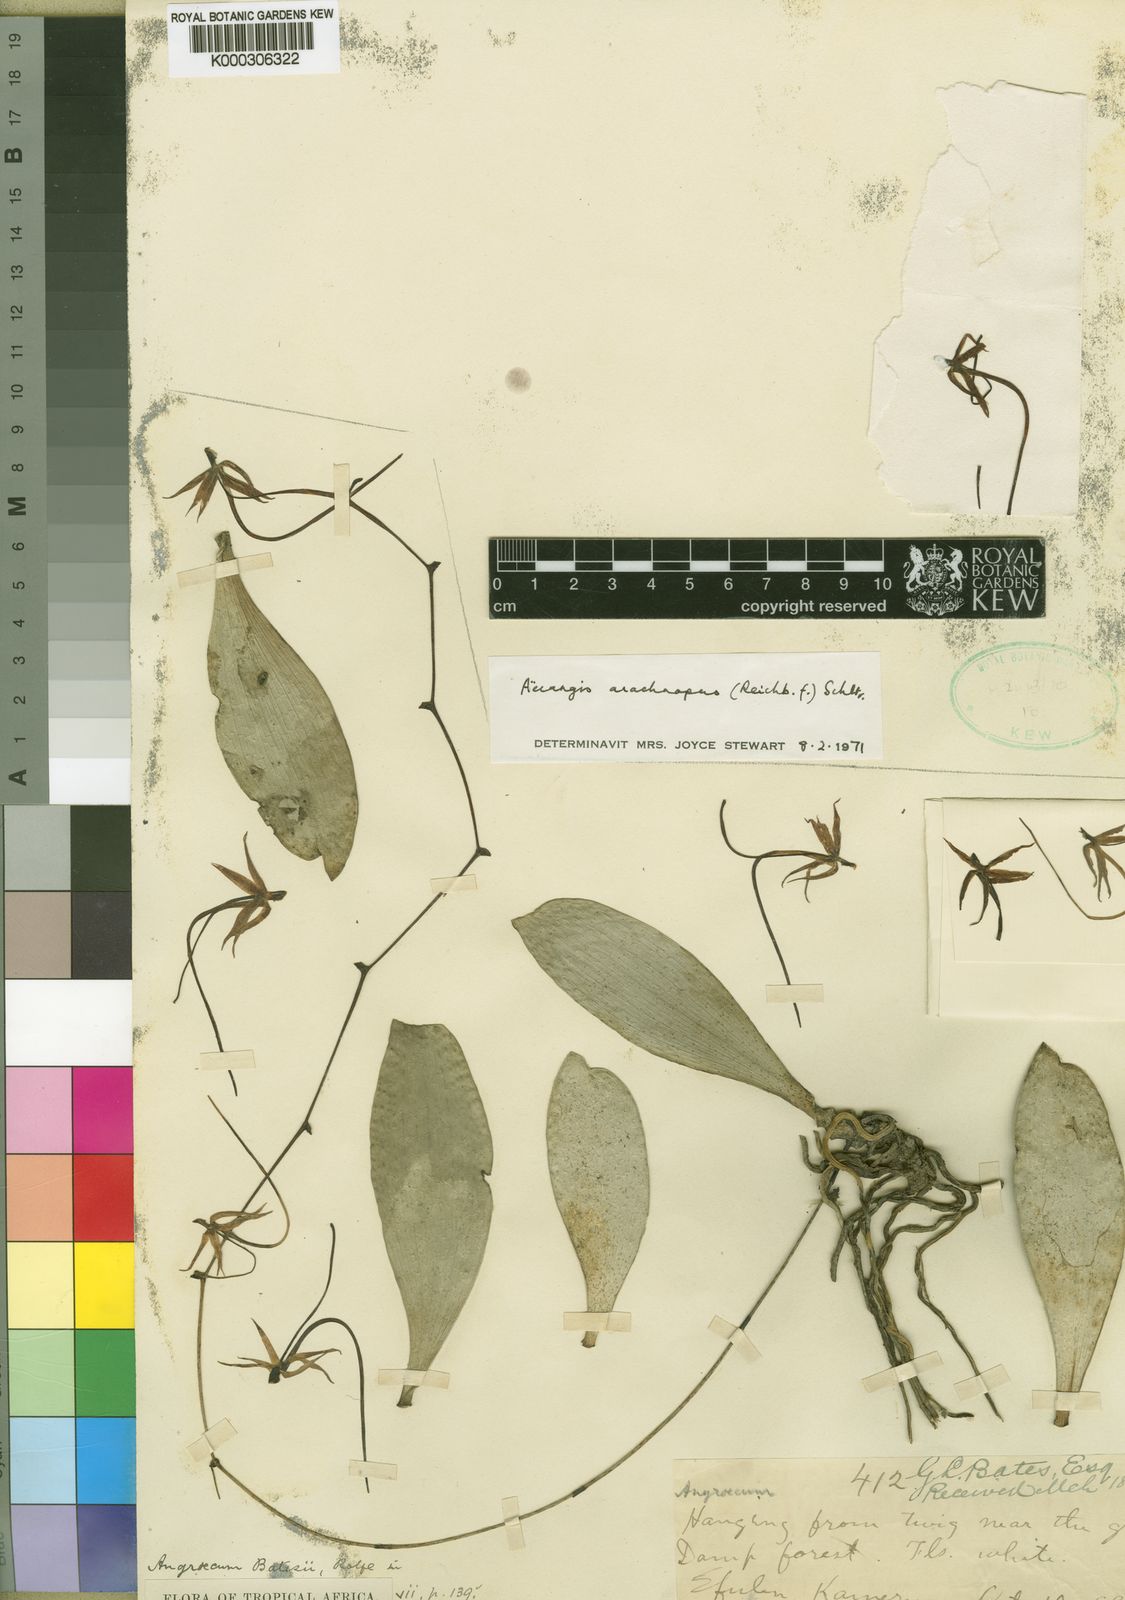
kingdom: Plantae
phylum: Tracheophyta
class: Liliopsida
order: Asparagales
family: Orchidaceae
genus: Aerangis
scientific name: Aerangis arachnopus
